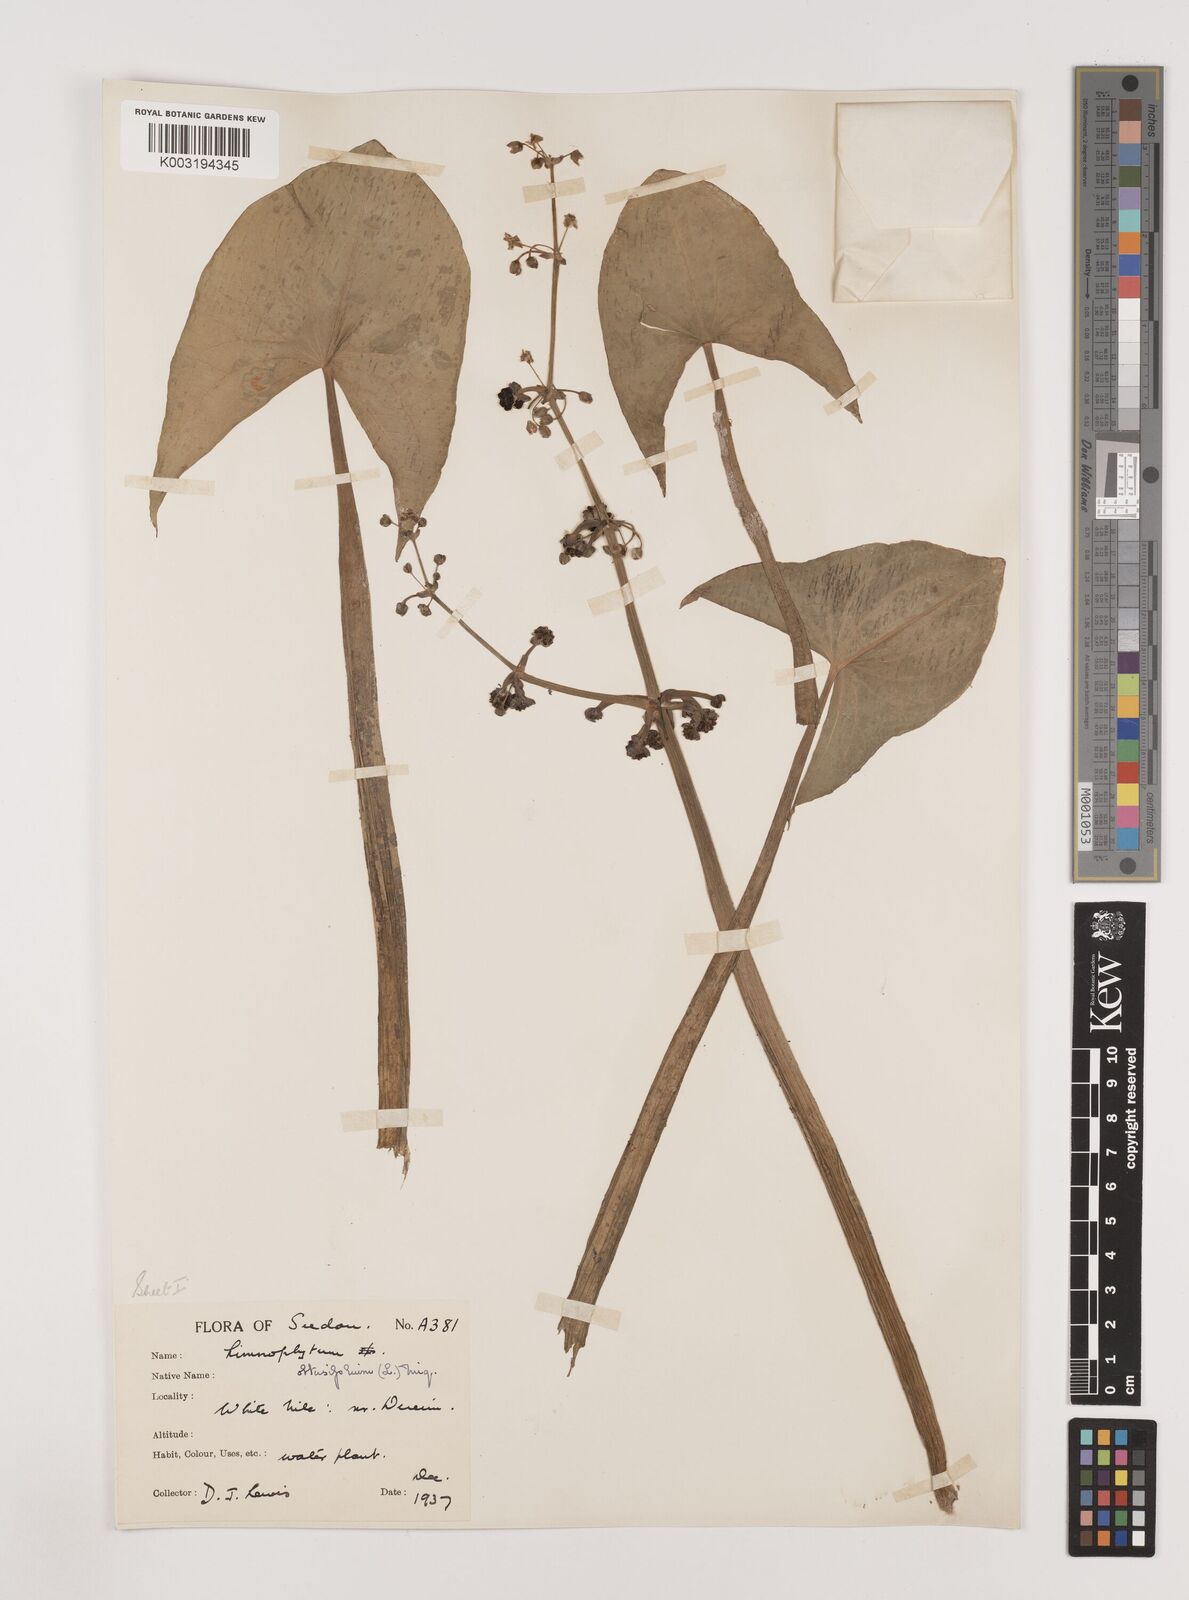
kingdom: Plantae
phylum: Tracheophyta
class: Liliopsida
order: Alismatales
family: Alismataceae
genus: Limnophyton
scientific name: Limnophyton obtusifolium
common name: Arrow head
